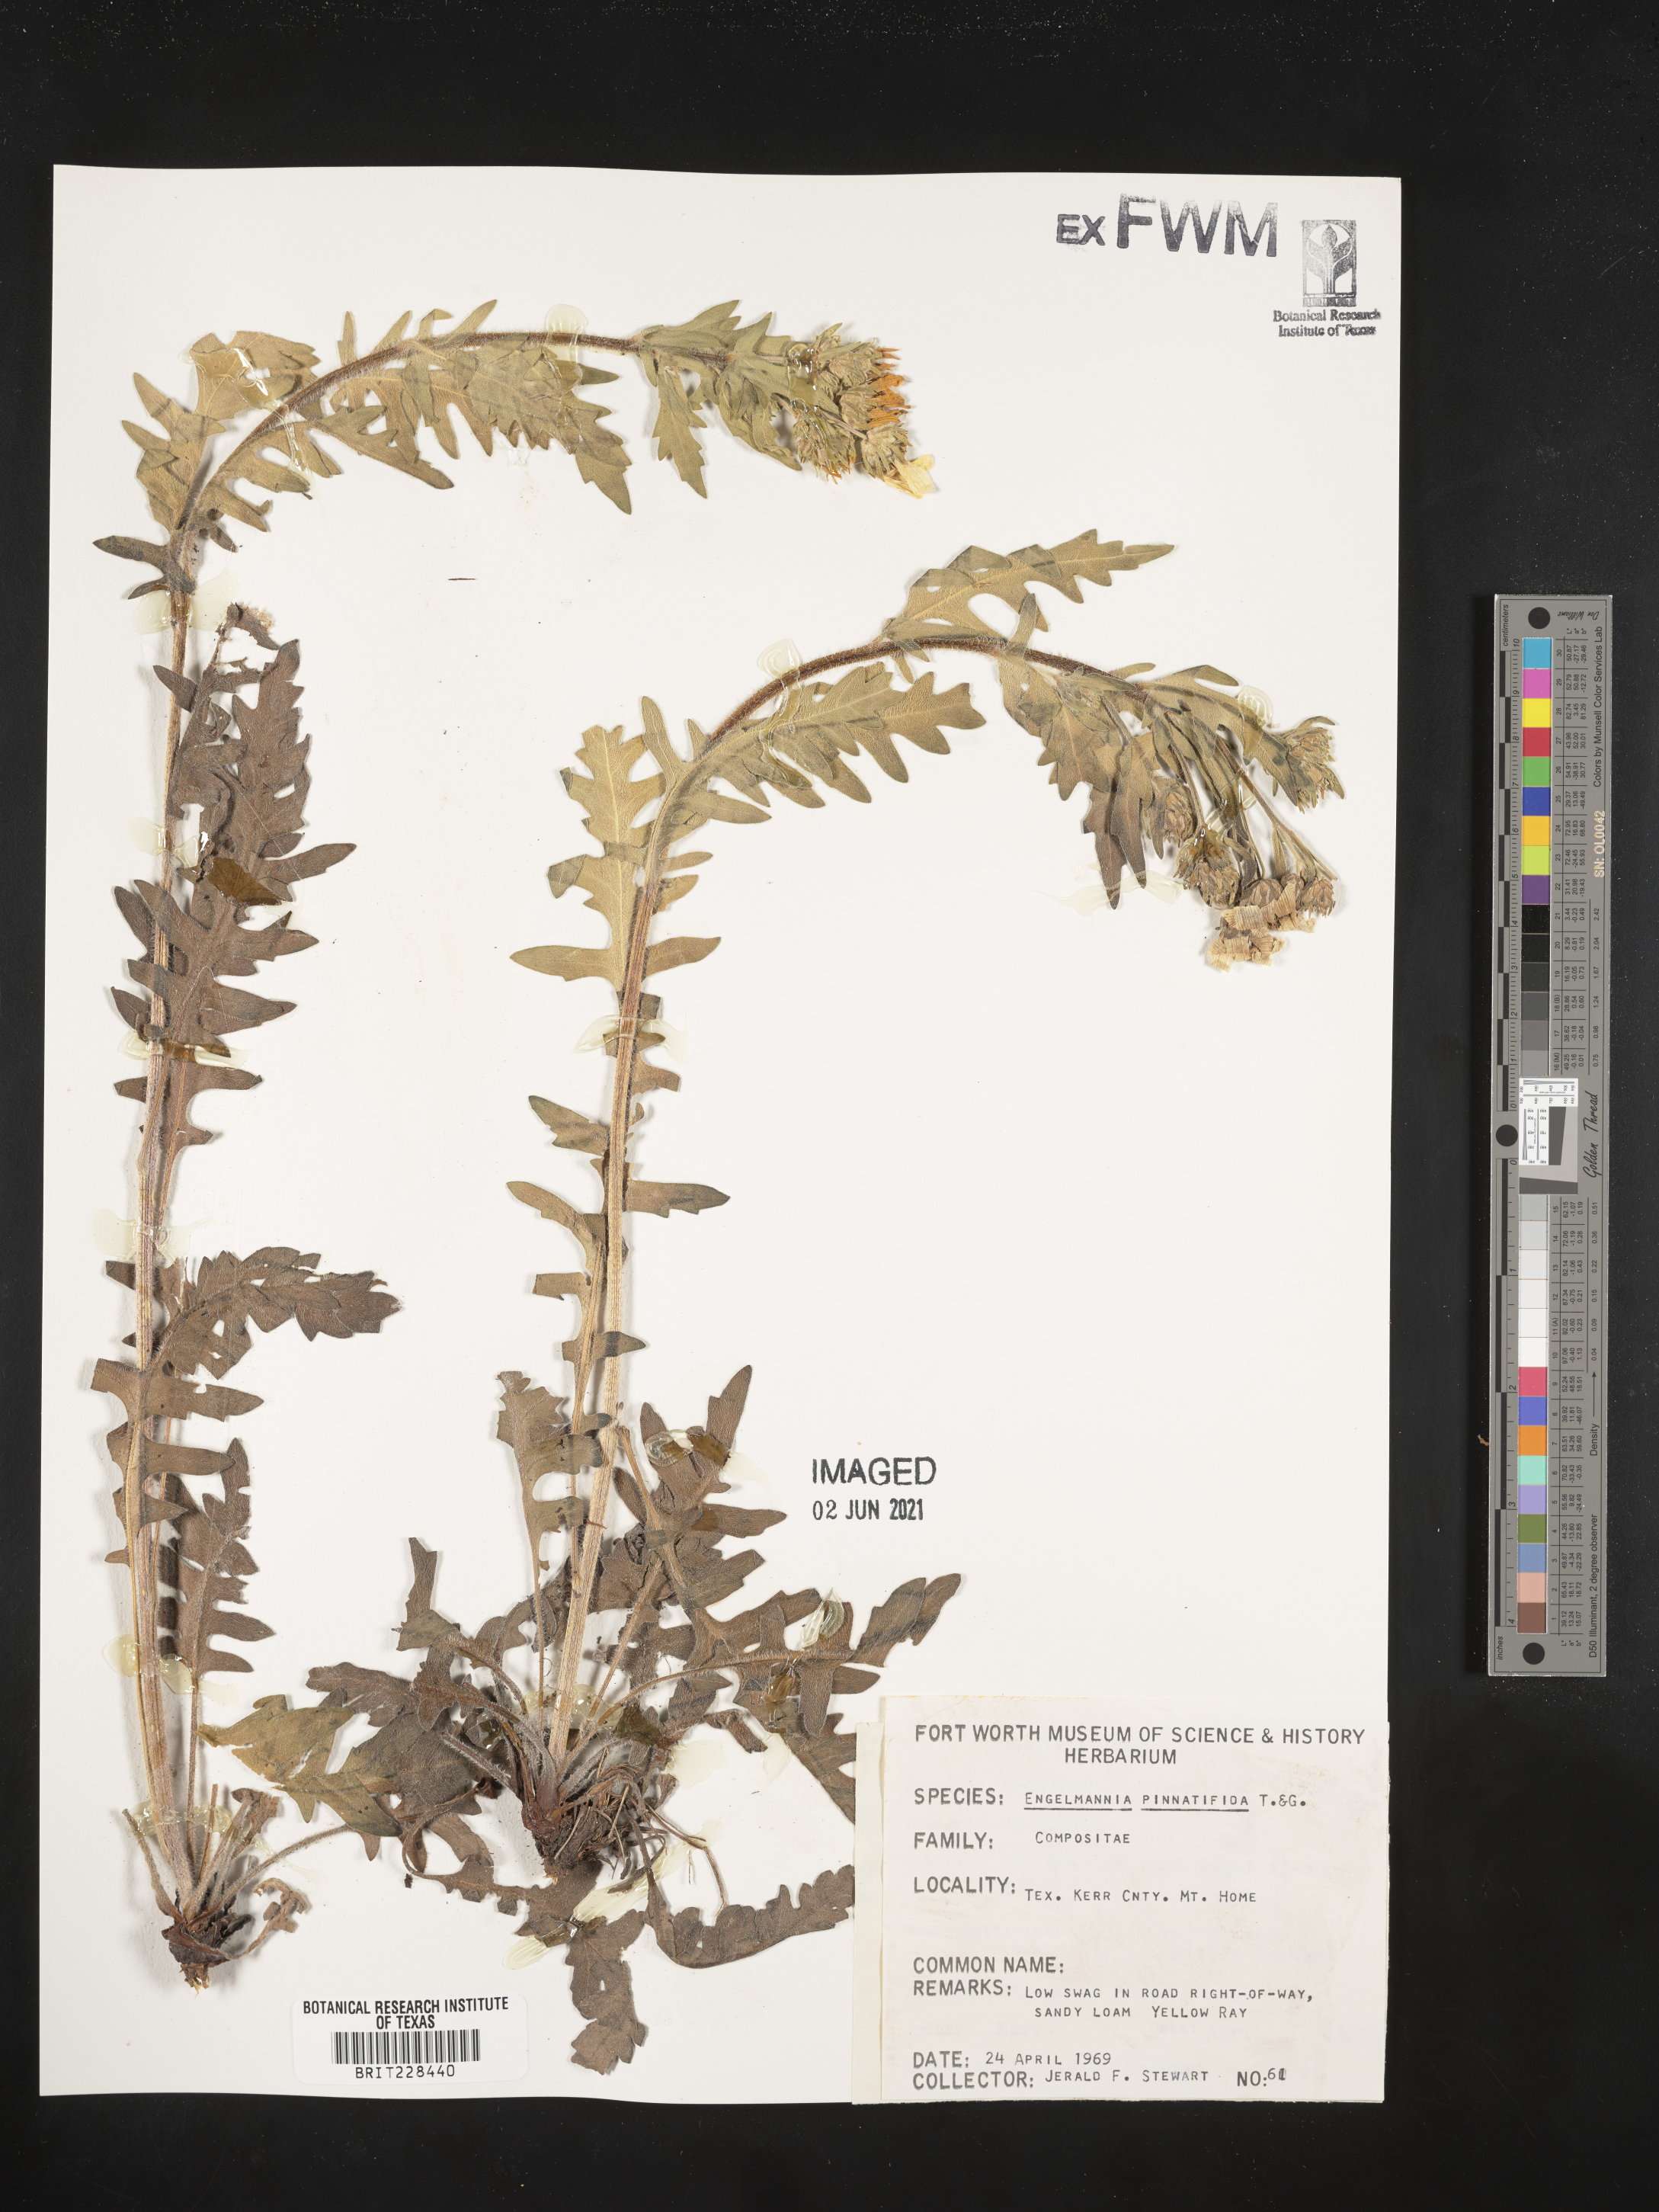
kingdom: Plantae
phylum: Tracheophyta
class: Magnoliopsida
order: Asterales
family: Asteraceae
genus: Engelmannia
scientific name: Engelmannia peristenia
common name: Engelmann's daisy
